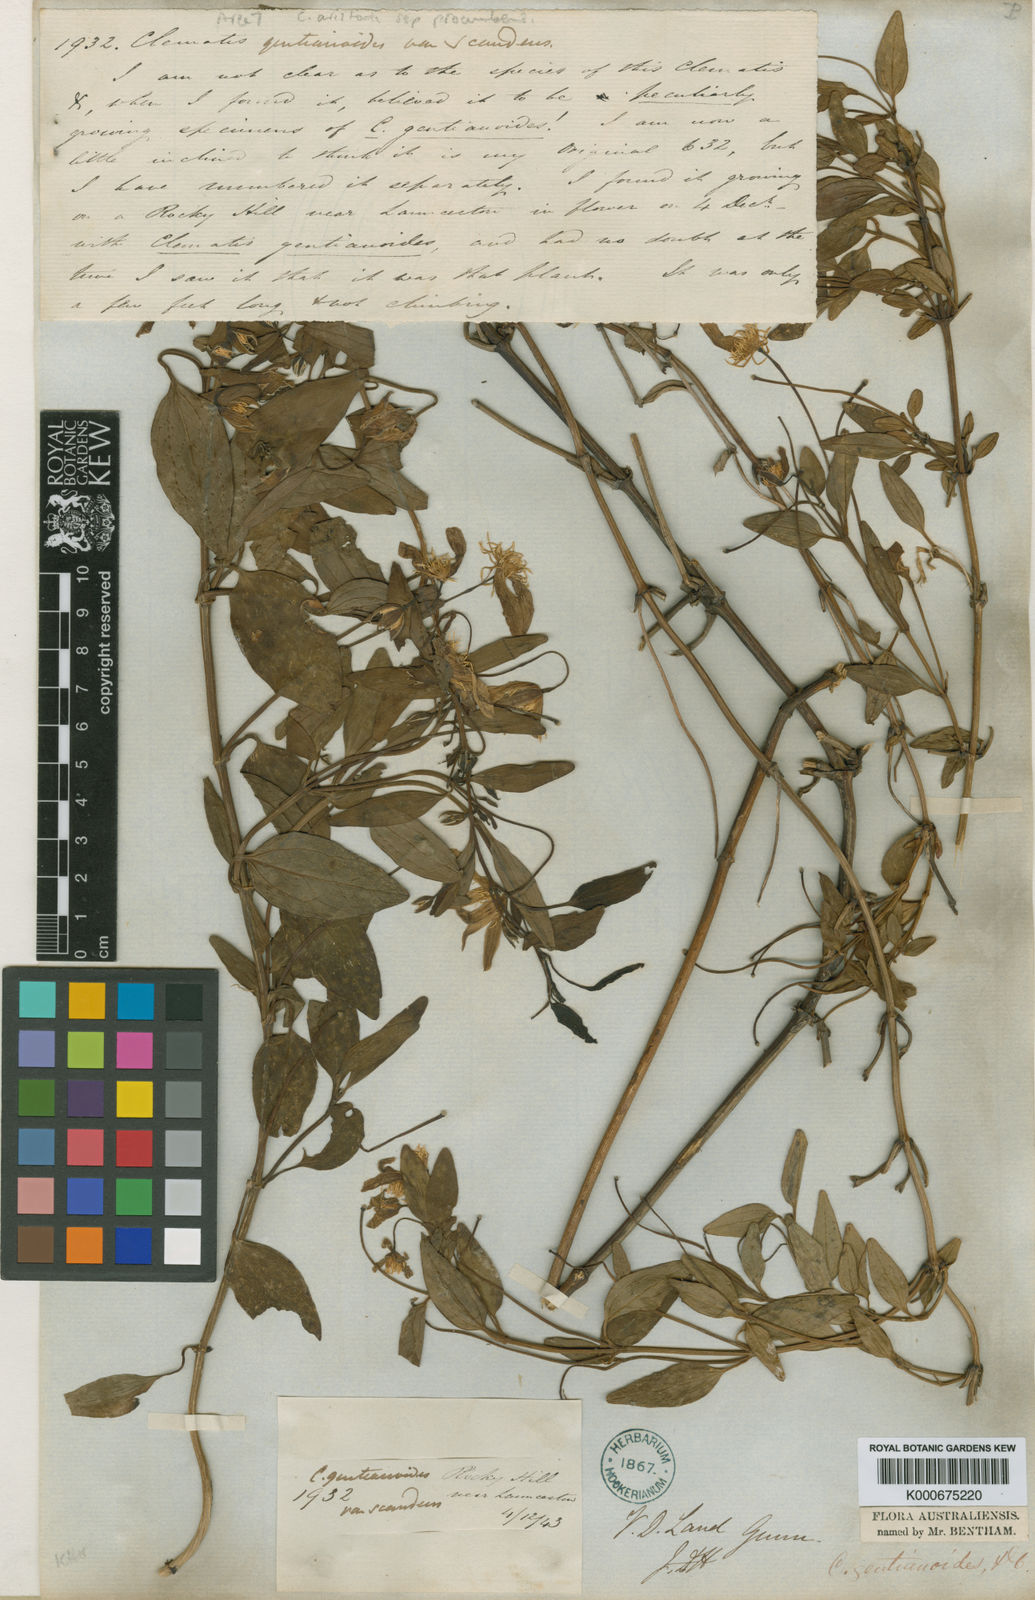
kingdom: Plantae
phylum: Tracheophyta
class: Magnoliopsida
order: Ranunculales
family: Ranunculaceae
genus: Clematis
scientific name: Clematis gentianoides
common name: Bushy clematis
